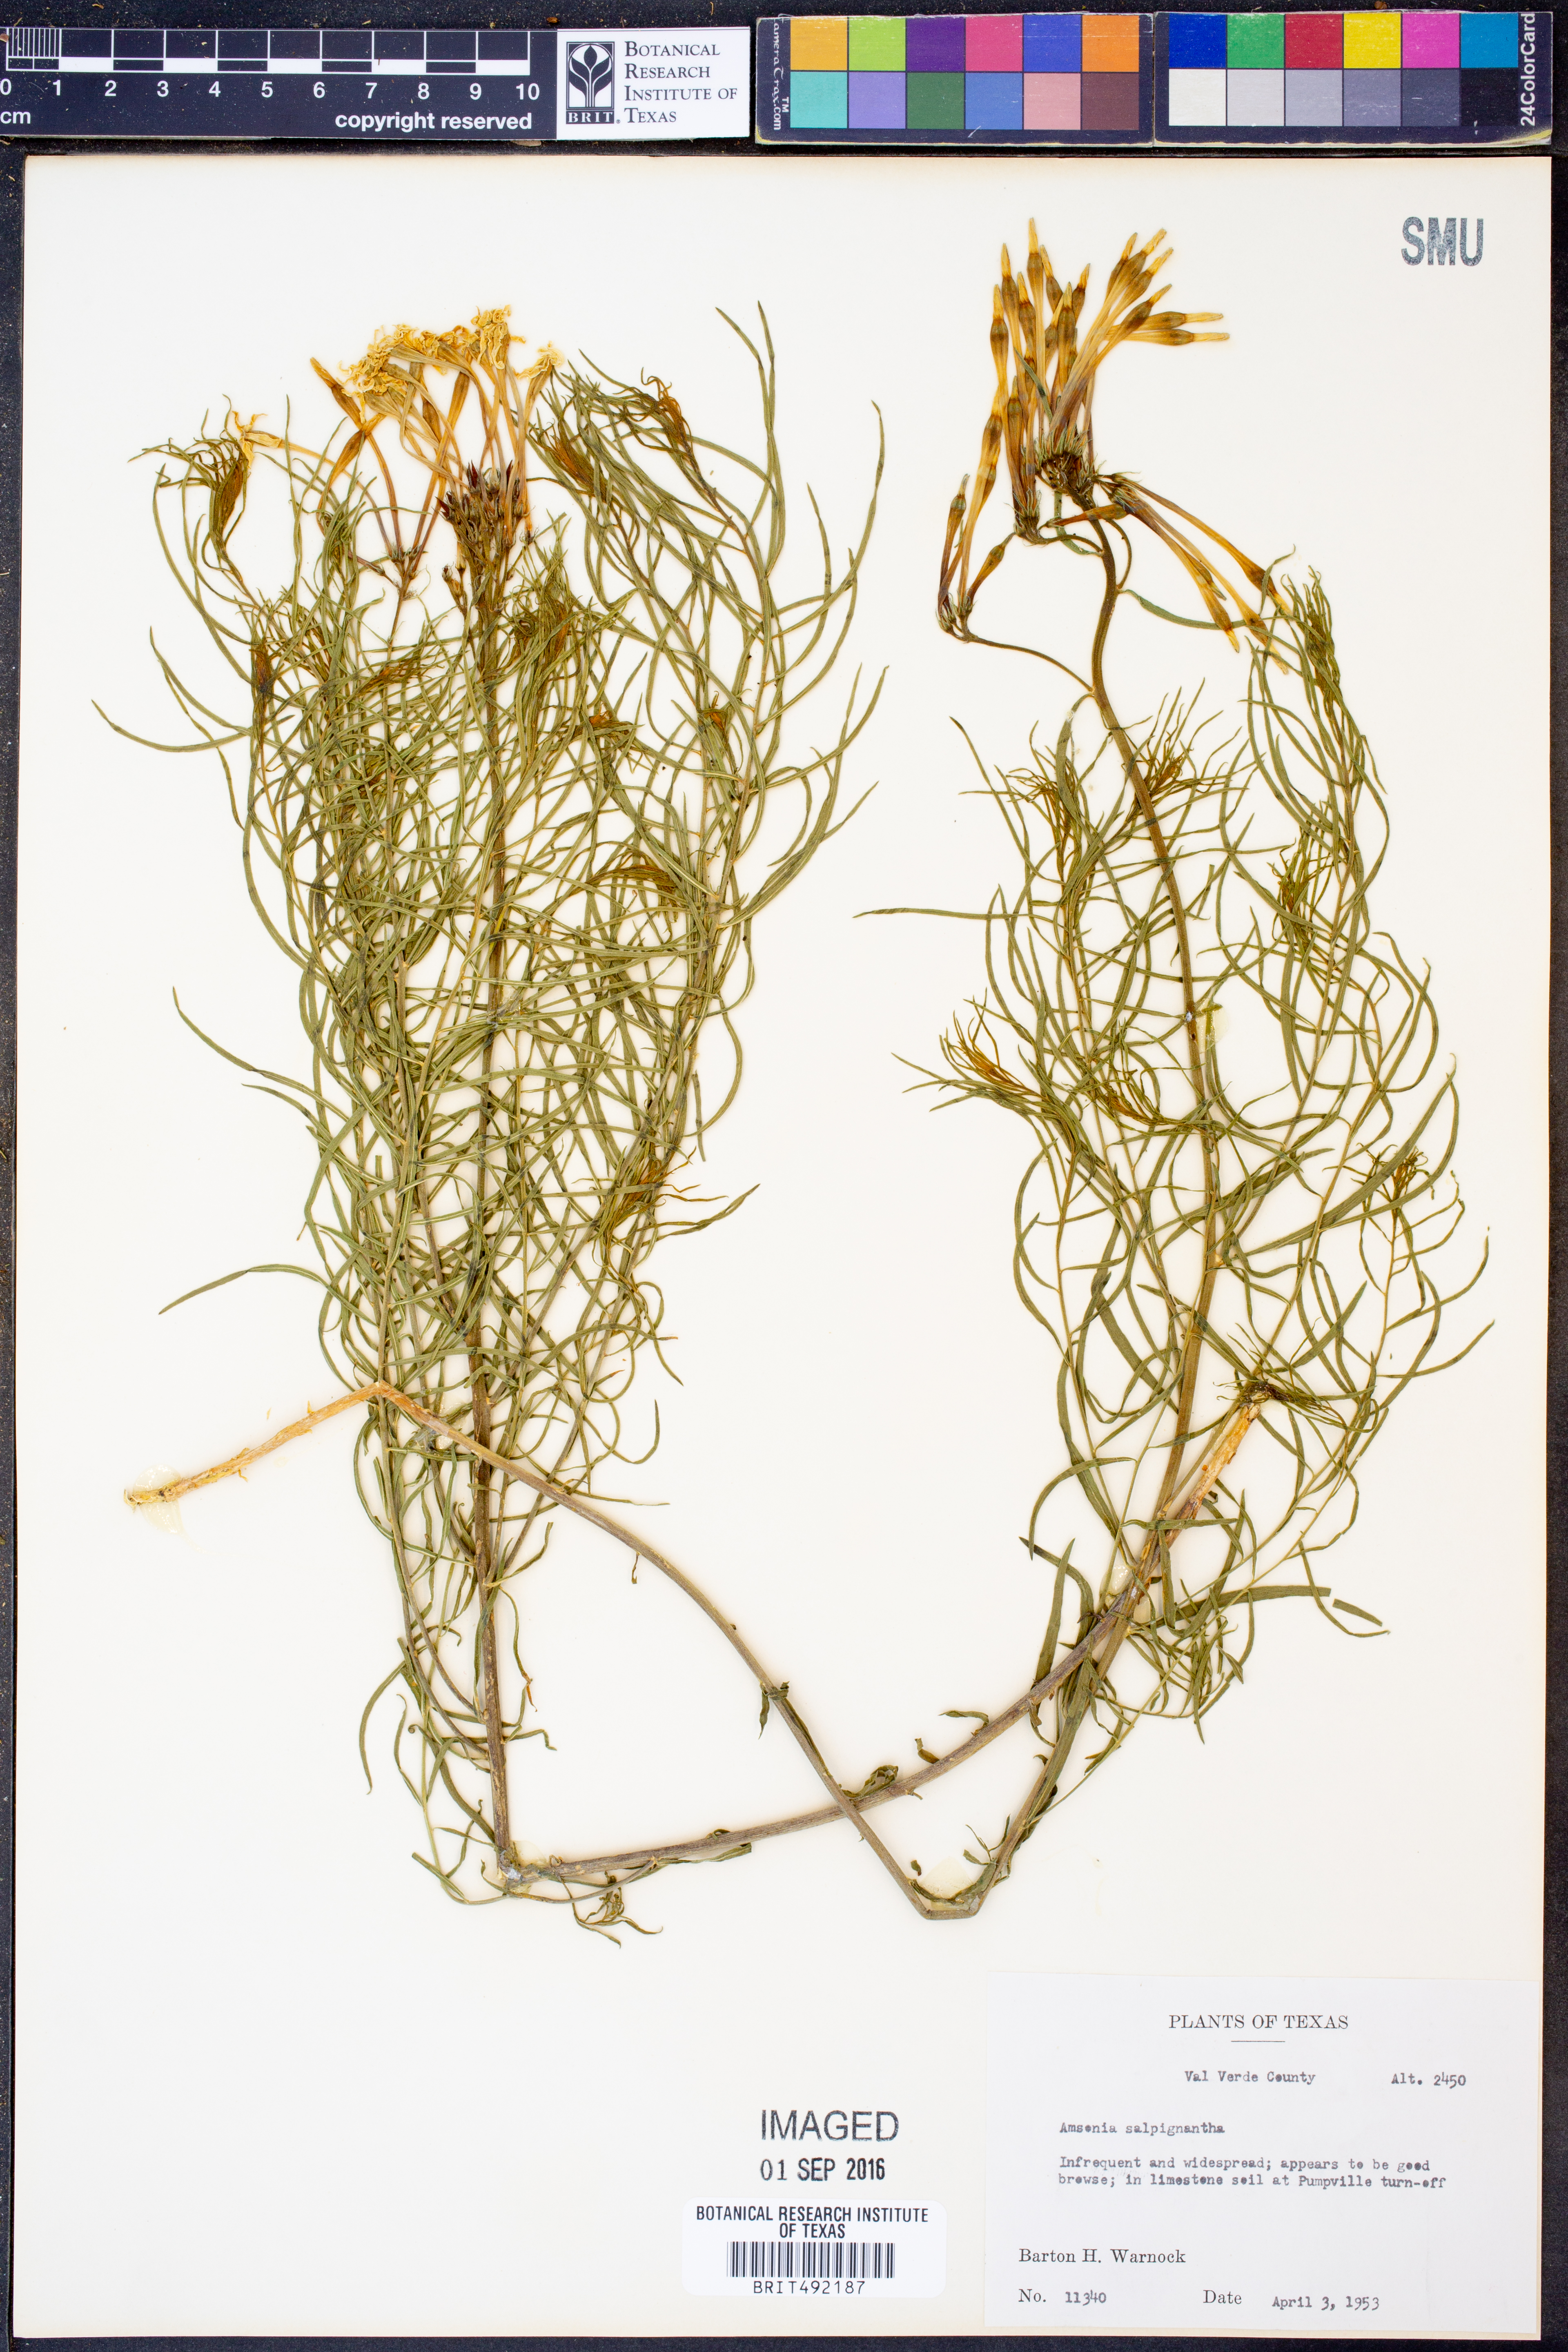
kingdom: Plantae
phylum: Tracheophyta
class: Magnoliopsida
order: Gentianales
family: Apocynaceae
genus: Amsonia
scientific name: Amsonia longiflora
